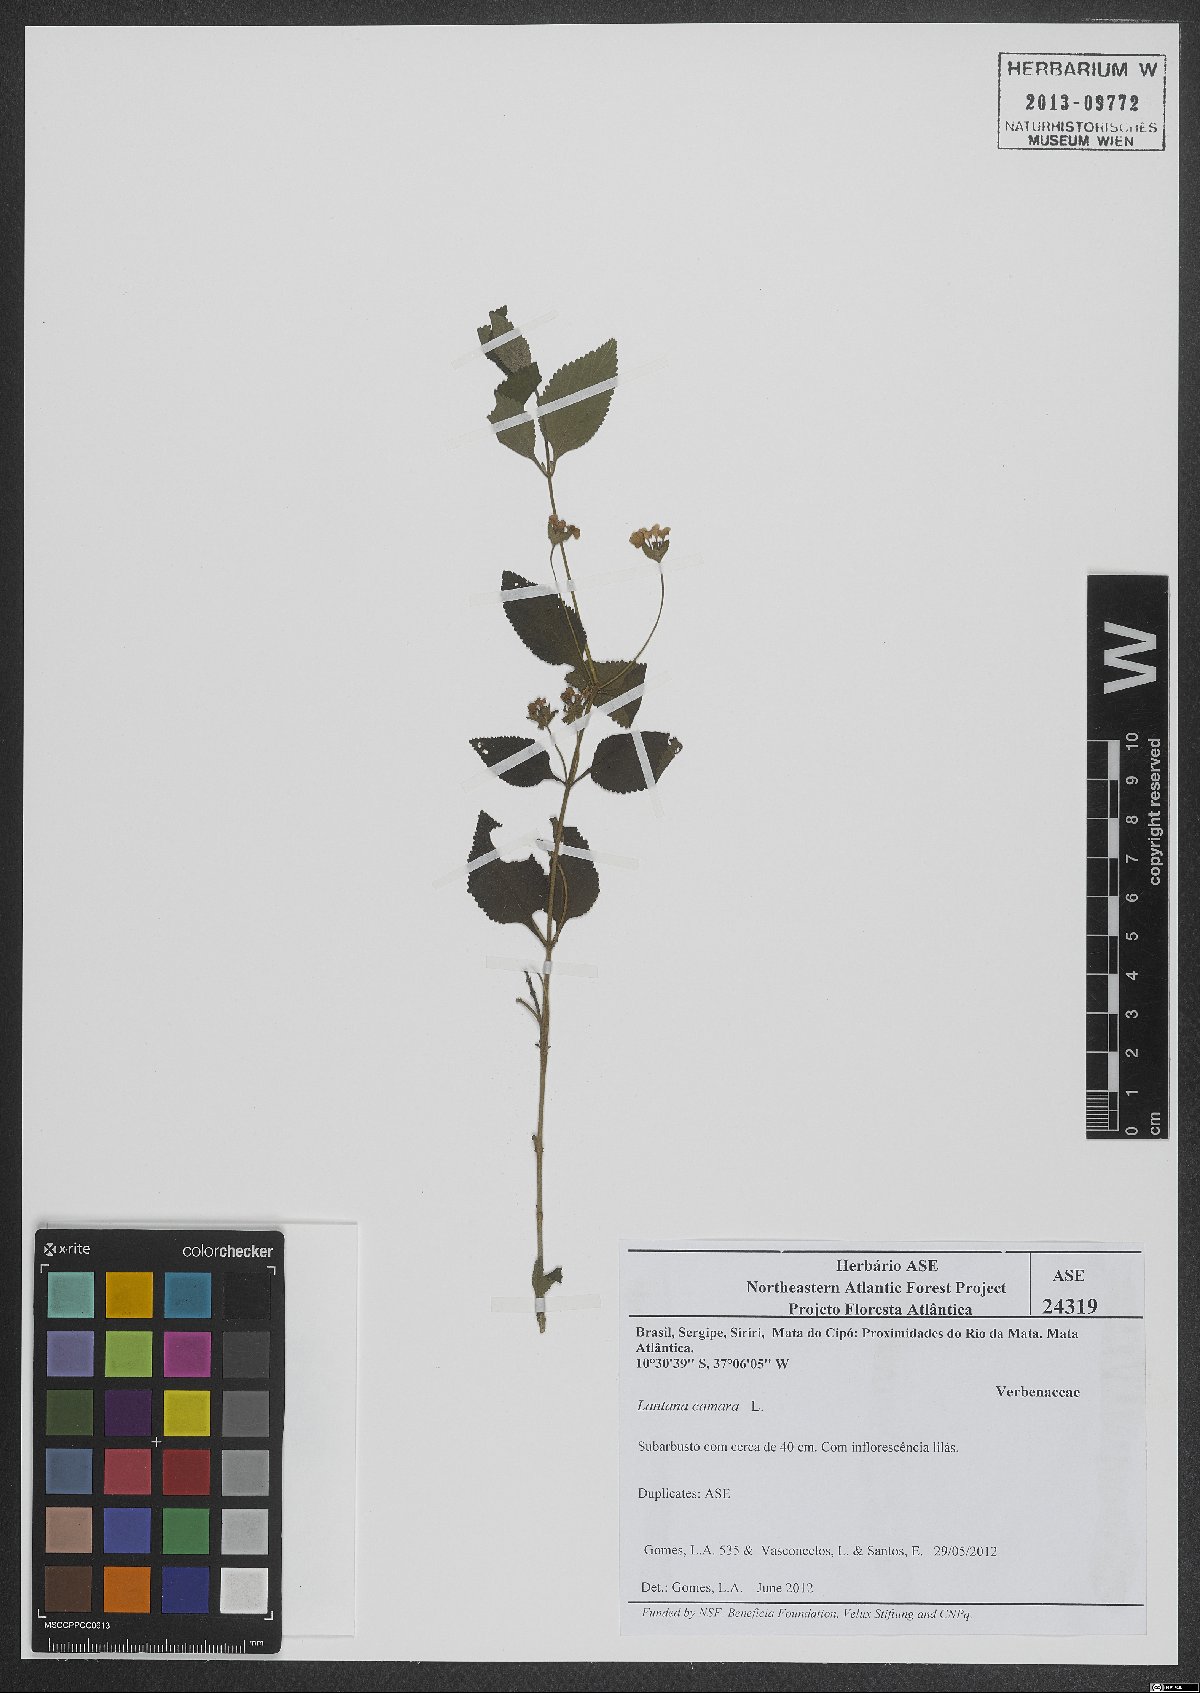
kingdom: Plantae
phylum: Tracheophyta
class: Magnoliopsida
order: Lamiales
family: Verbenaceae
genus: Lantana
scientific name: Lantana camara
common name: Lantana
